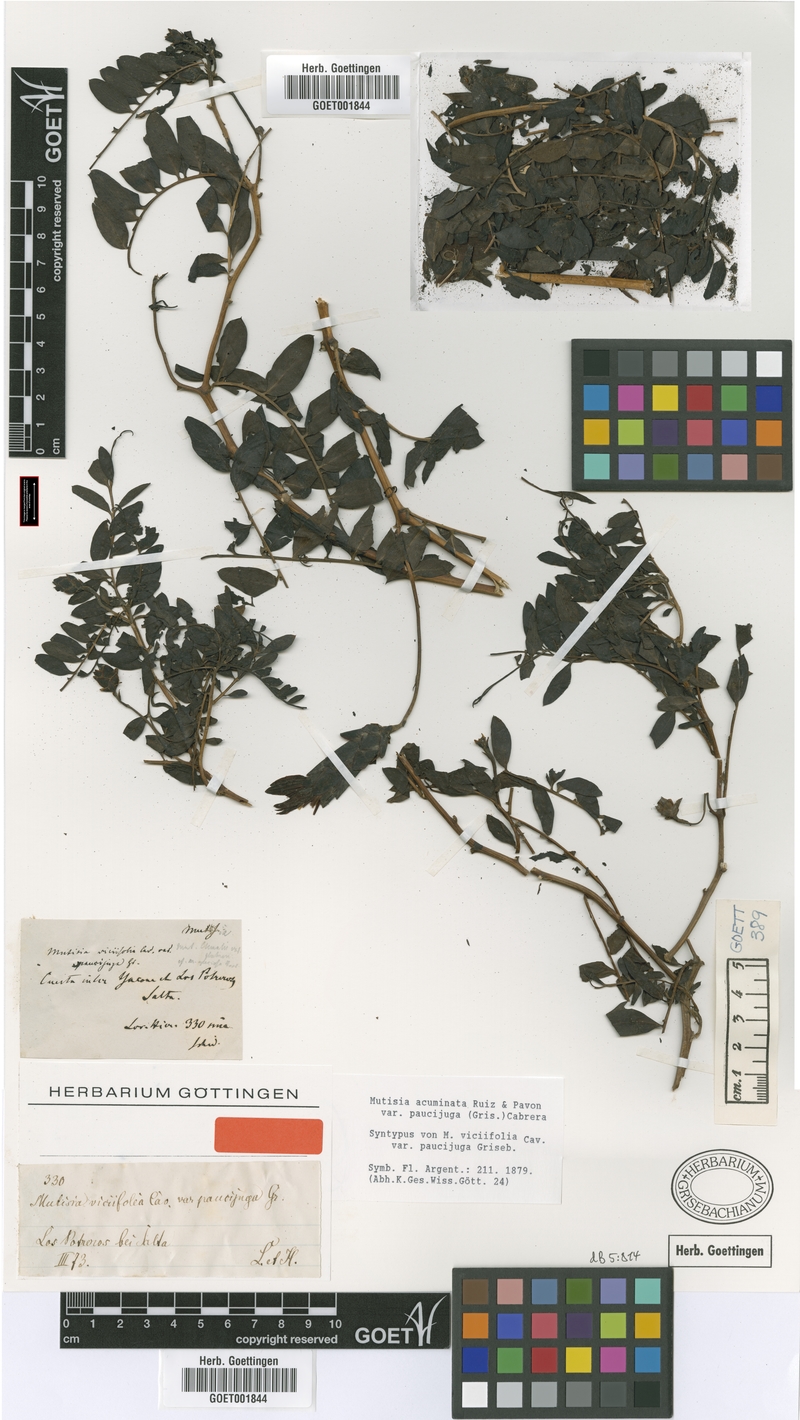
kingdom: Plantae
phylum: Tracheophyta
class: Magnoliopsida
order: Asterales
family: Asteraceae
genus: Mutisia
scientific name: Mutisia acuminata
